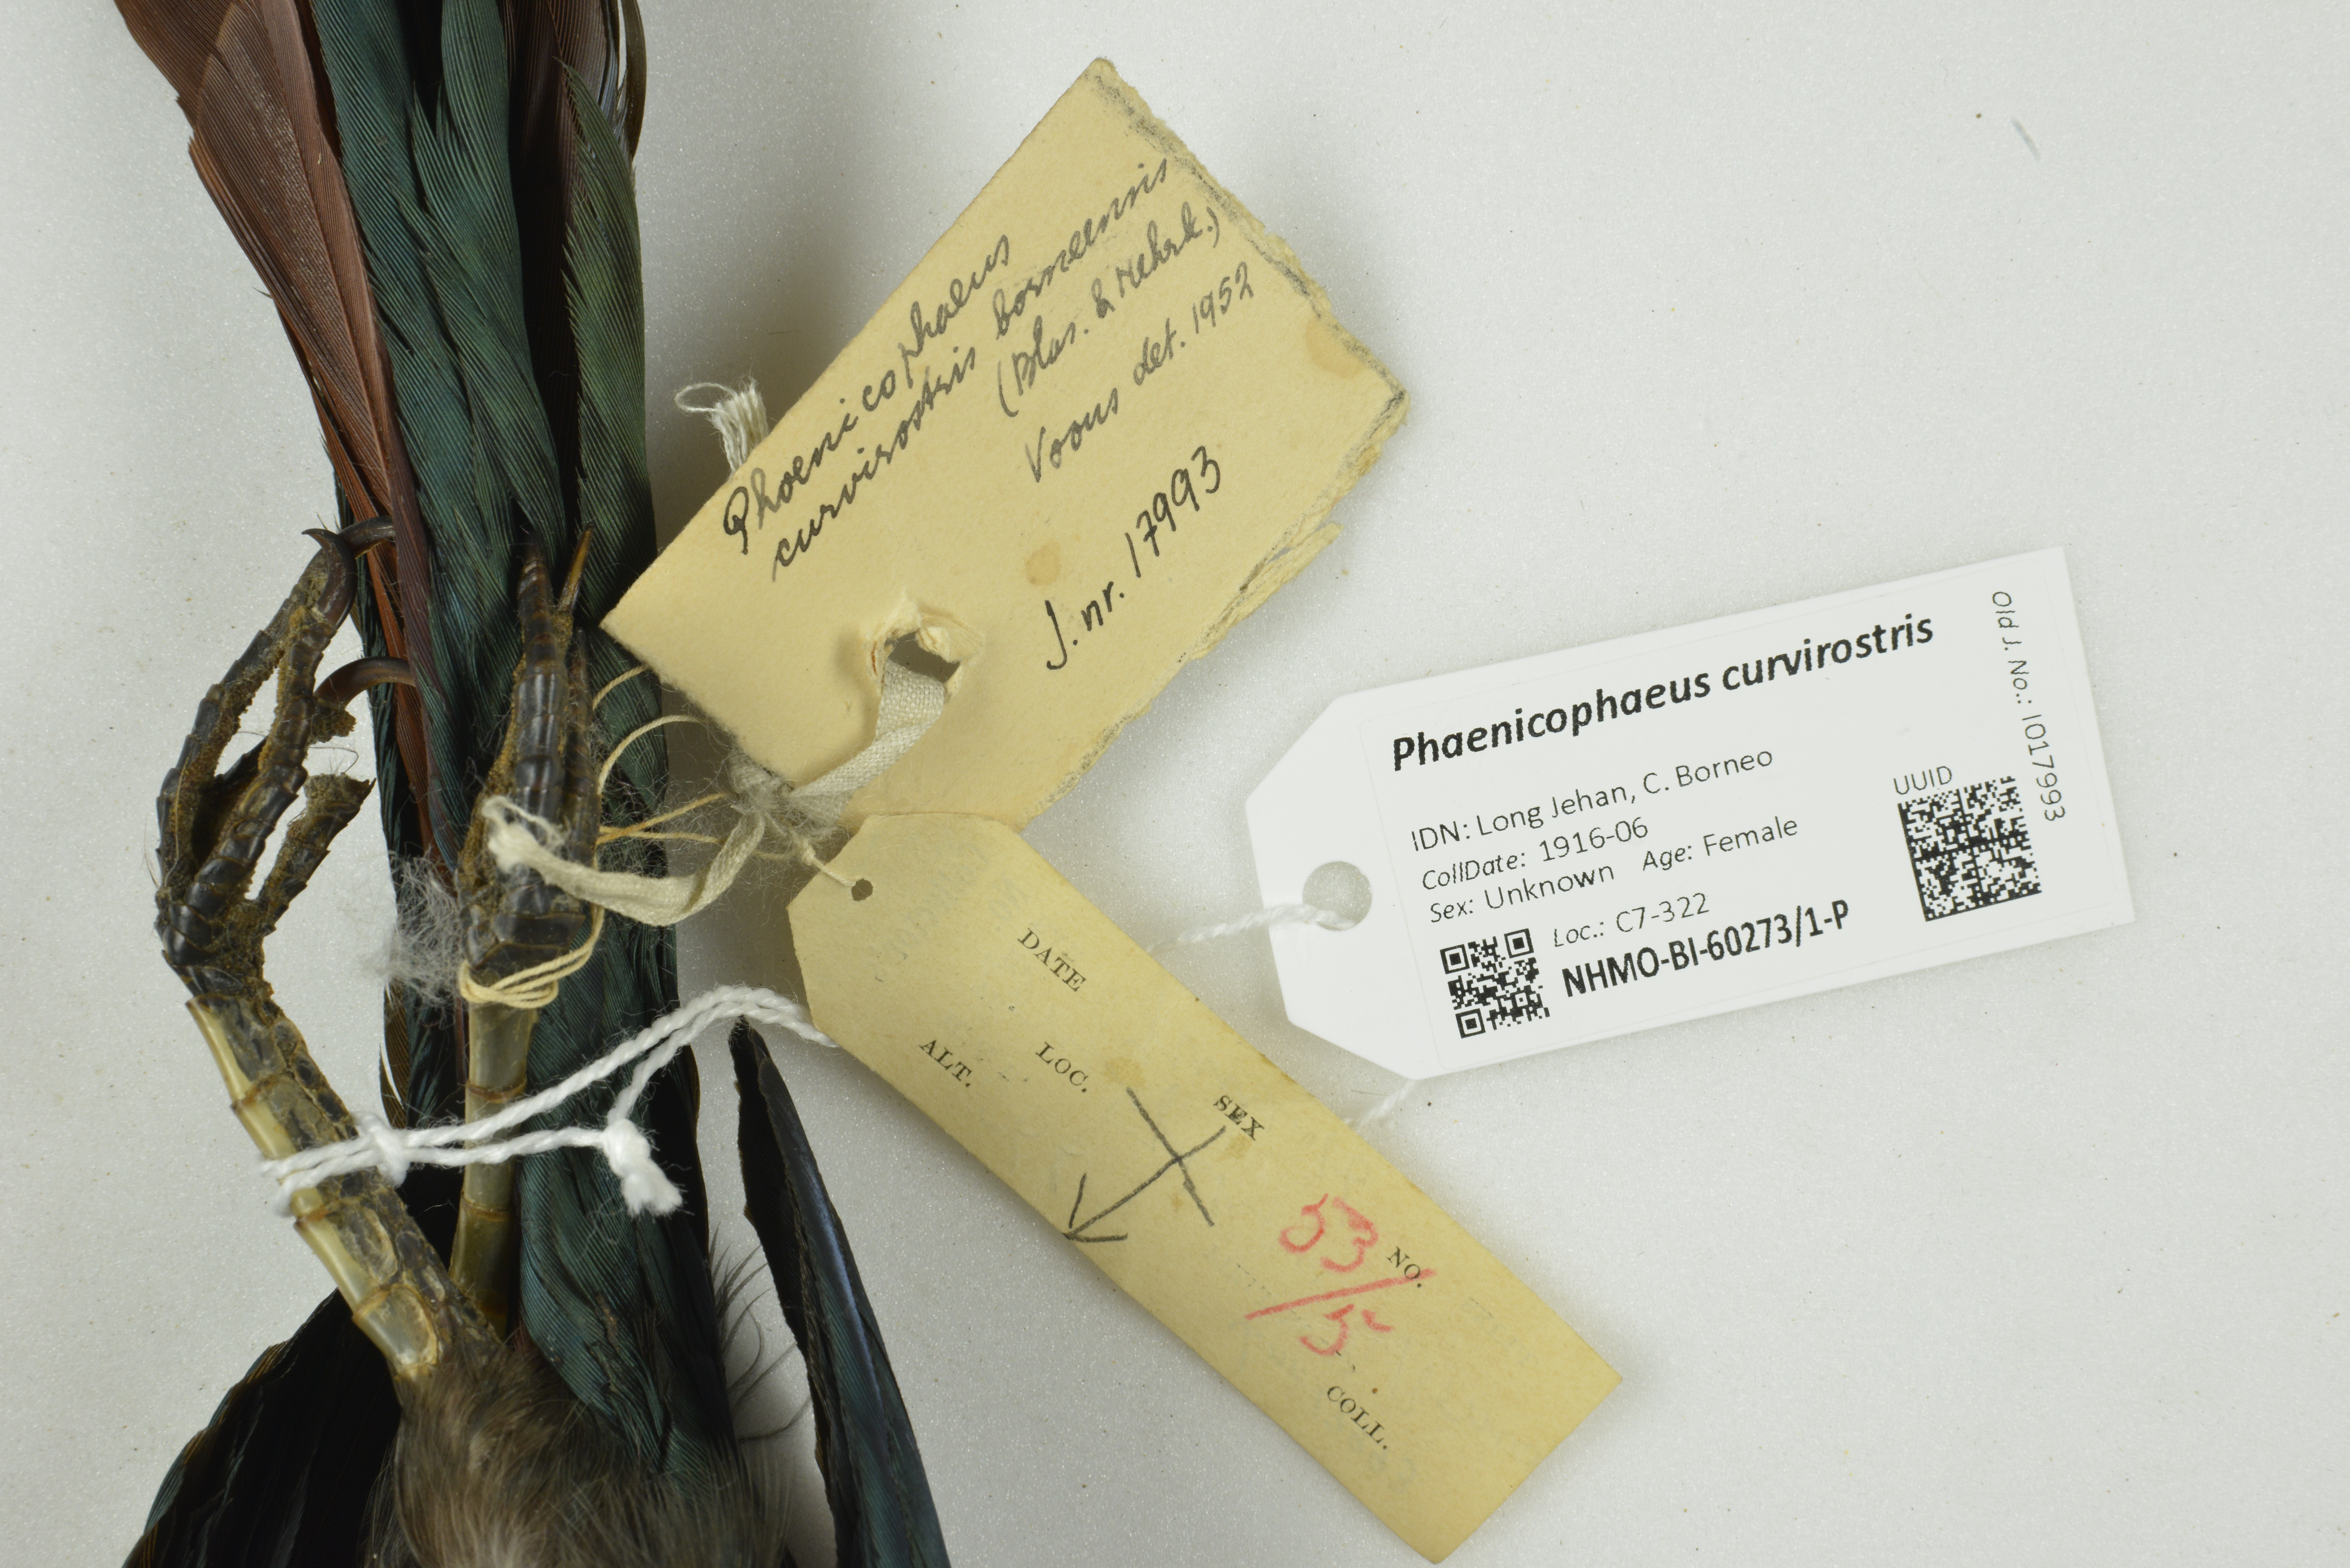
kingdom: Animalia
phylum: Chordata
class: Aves
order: Cuculiformes
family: Cuculidae
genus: Zanclostomus
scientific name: Zanclostomus curvirostris
